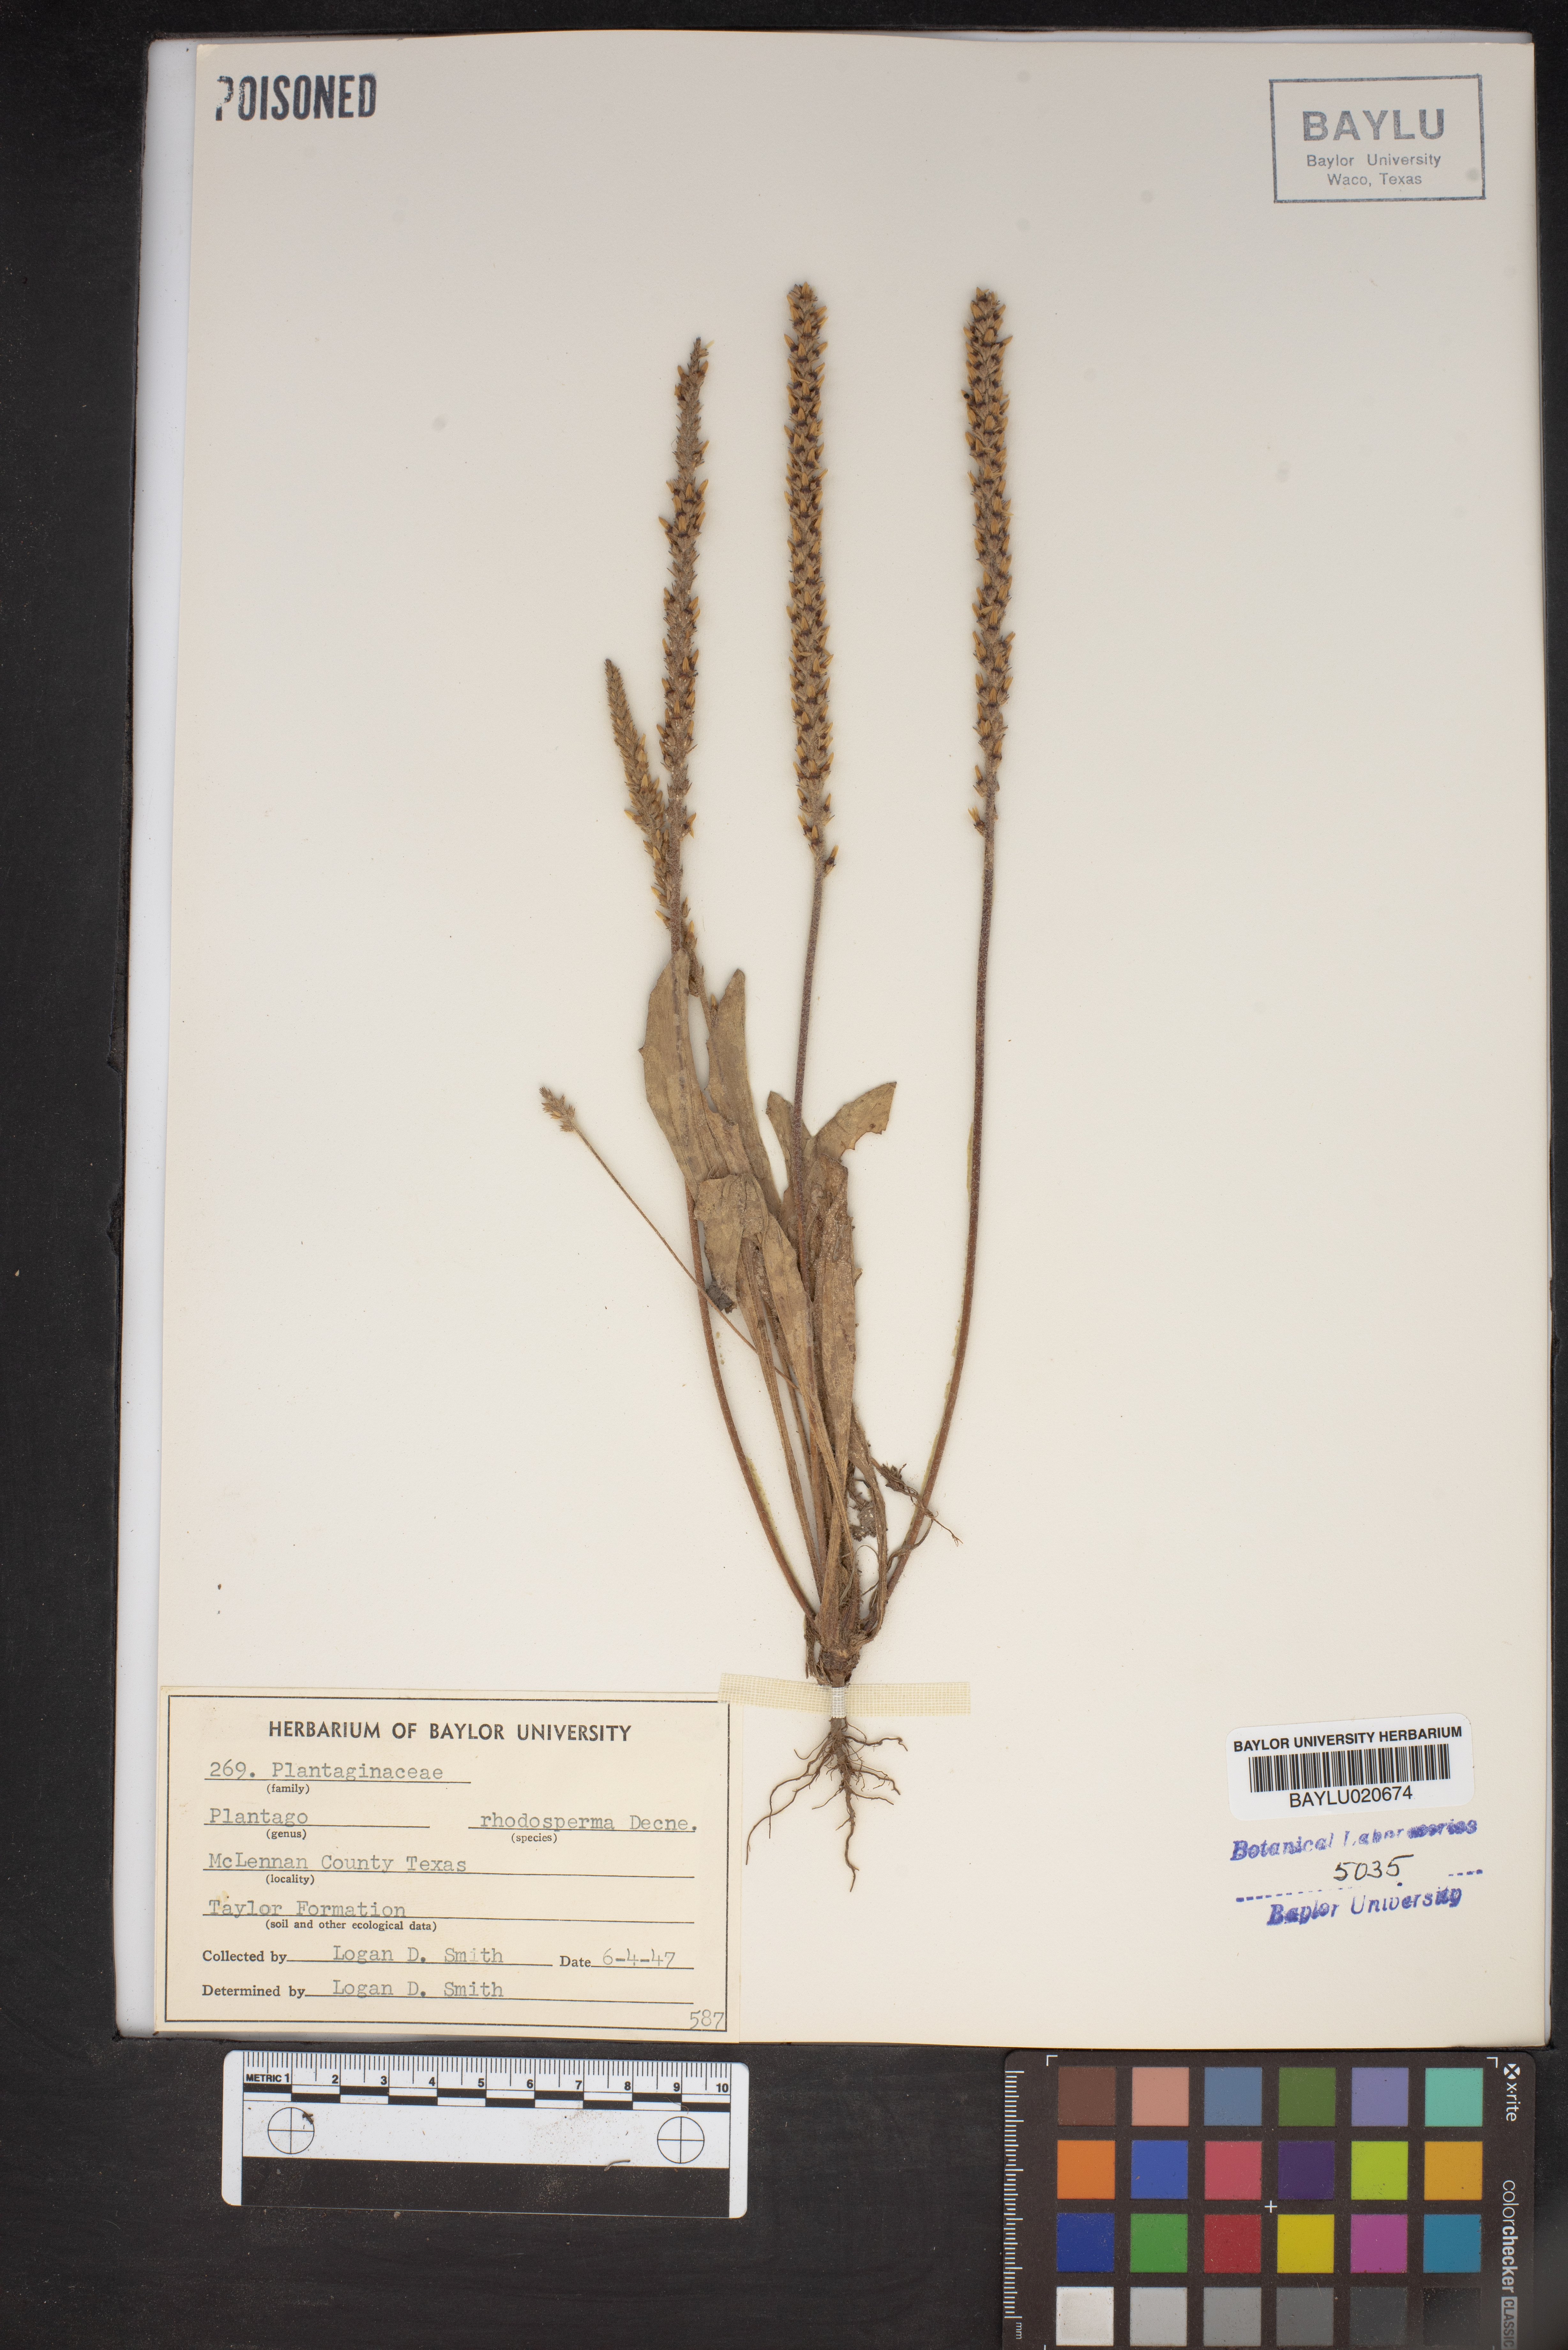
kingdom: Plantae
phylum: Tracheophyta
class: Magnoliopsida
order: Lamiales
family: Plantaginaceae
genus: Plantago
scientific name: Plantago rhodosperma
